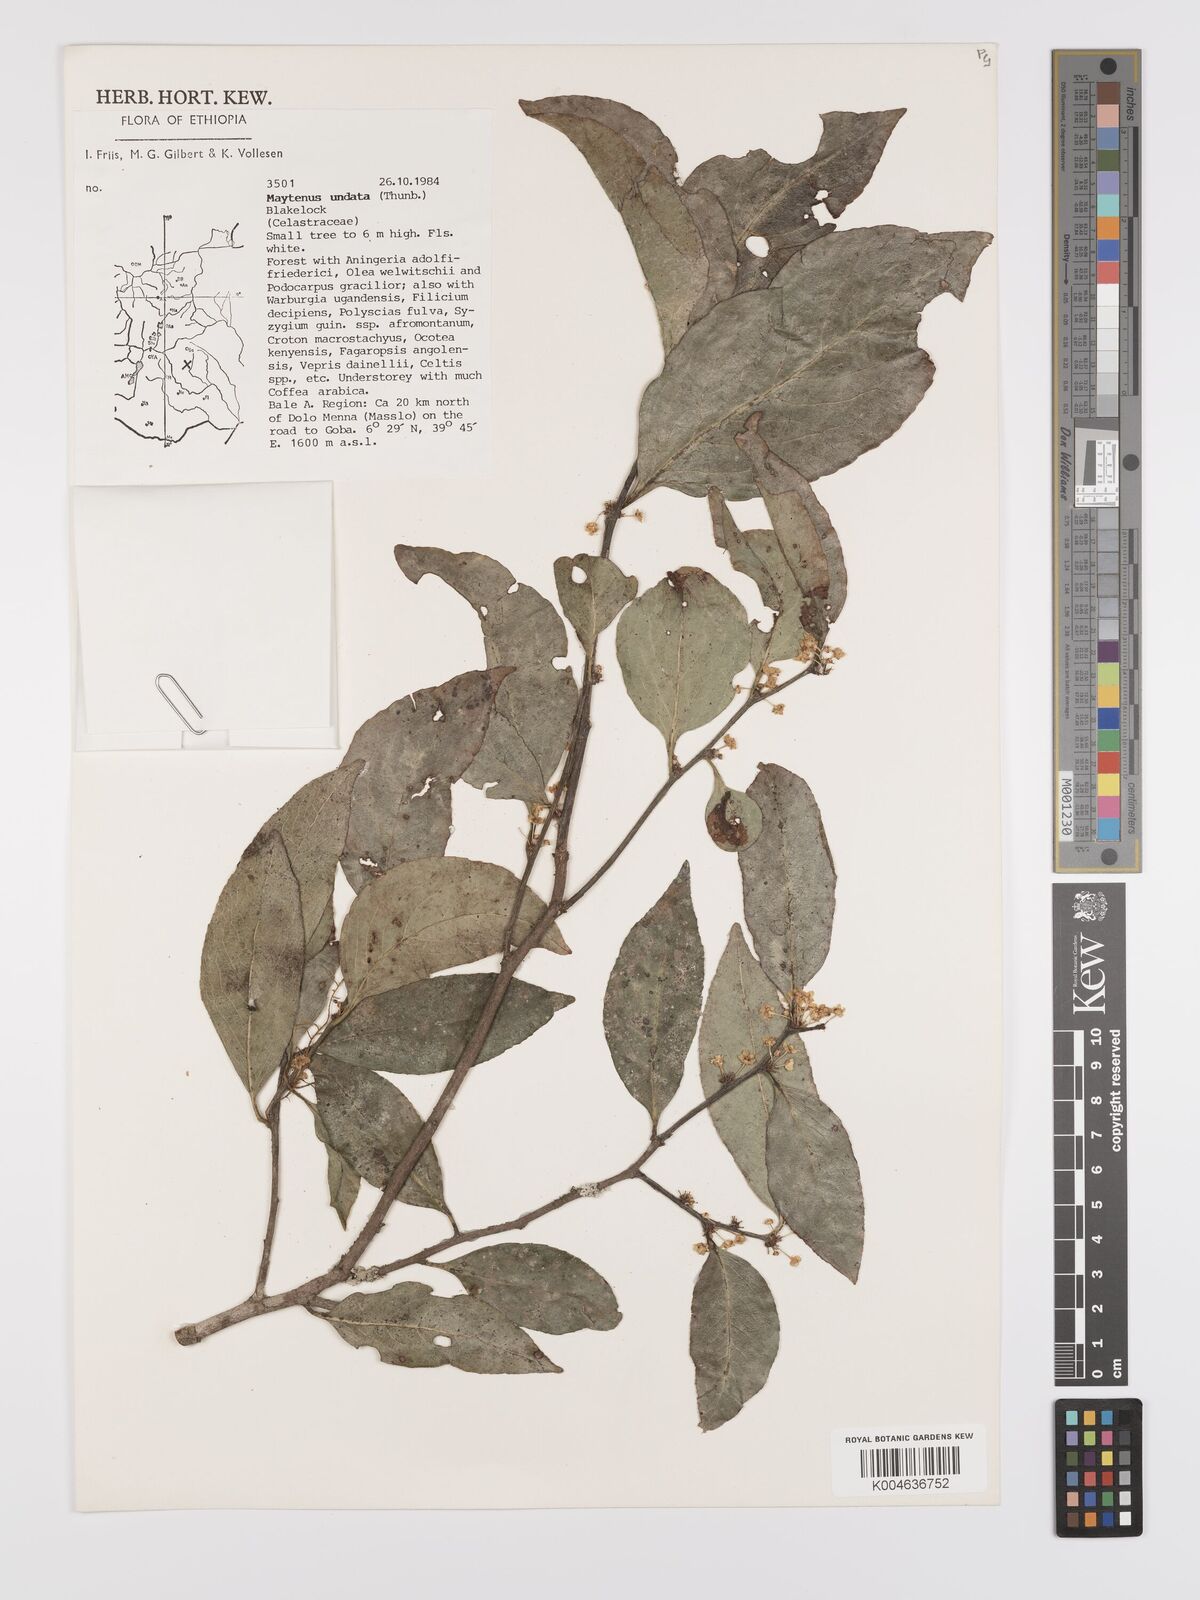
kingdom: Plantae
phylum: Tracheophyta
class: Magnoliopsida
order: Celastrales
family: Celastraceae
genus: Gymnosporia
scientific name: Gymnosporia undata
